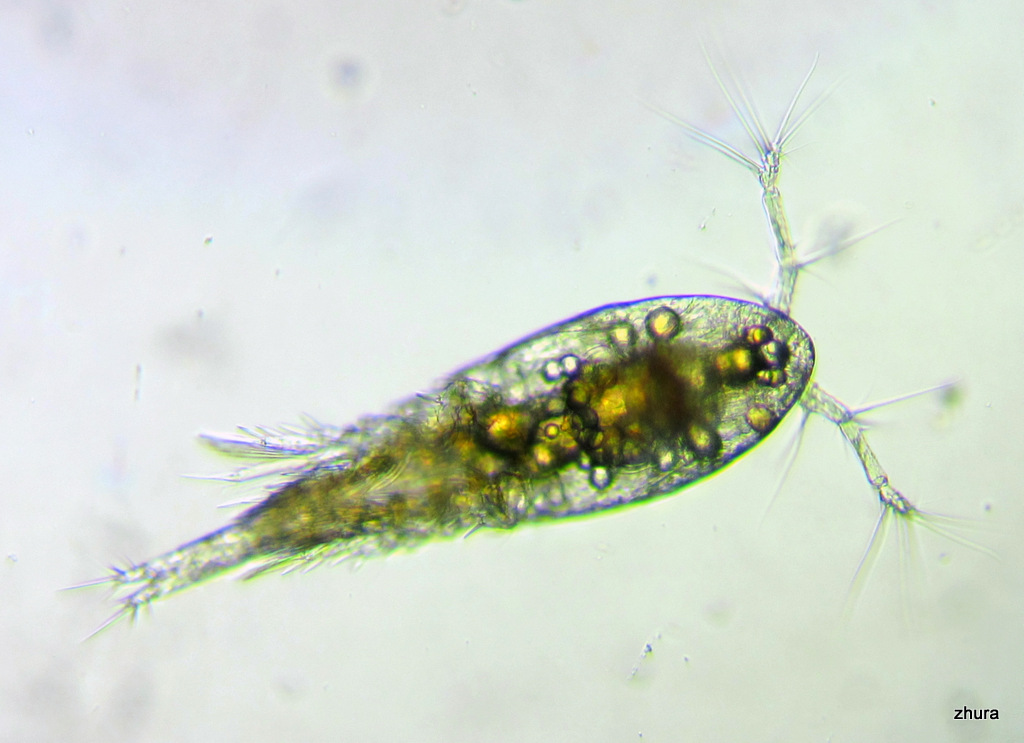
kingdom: Animalia
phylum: Arthropoda
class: Copepoda
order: Cyclopoida
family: Oncaeidae
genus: Oncaea
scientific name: Oncaea
